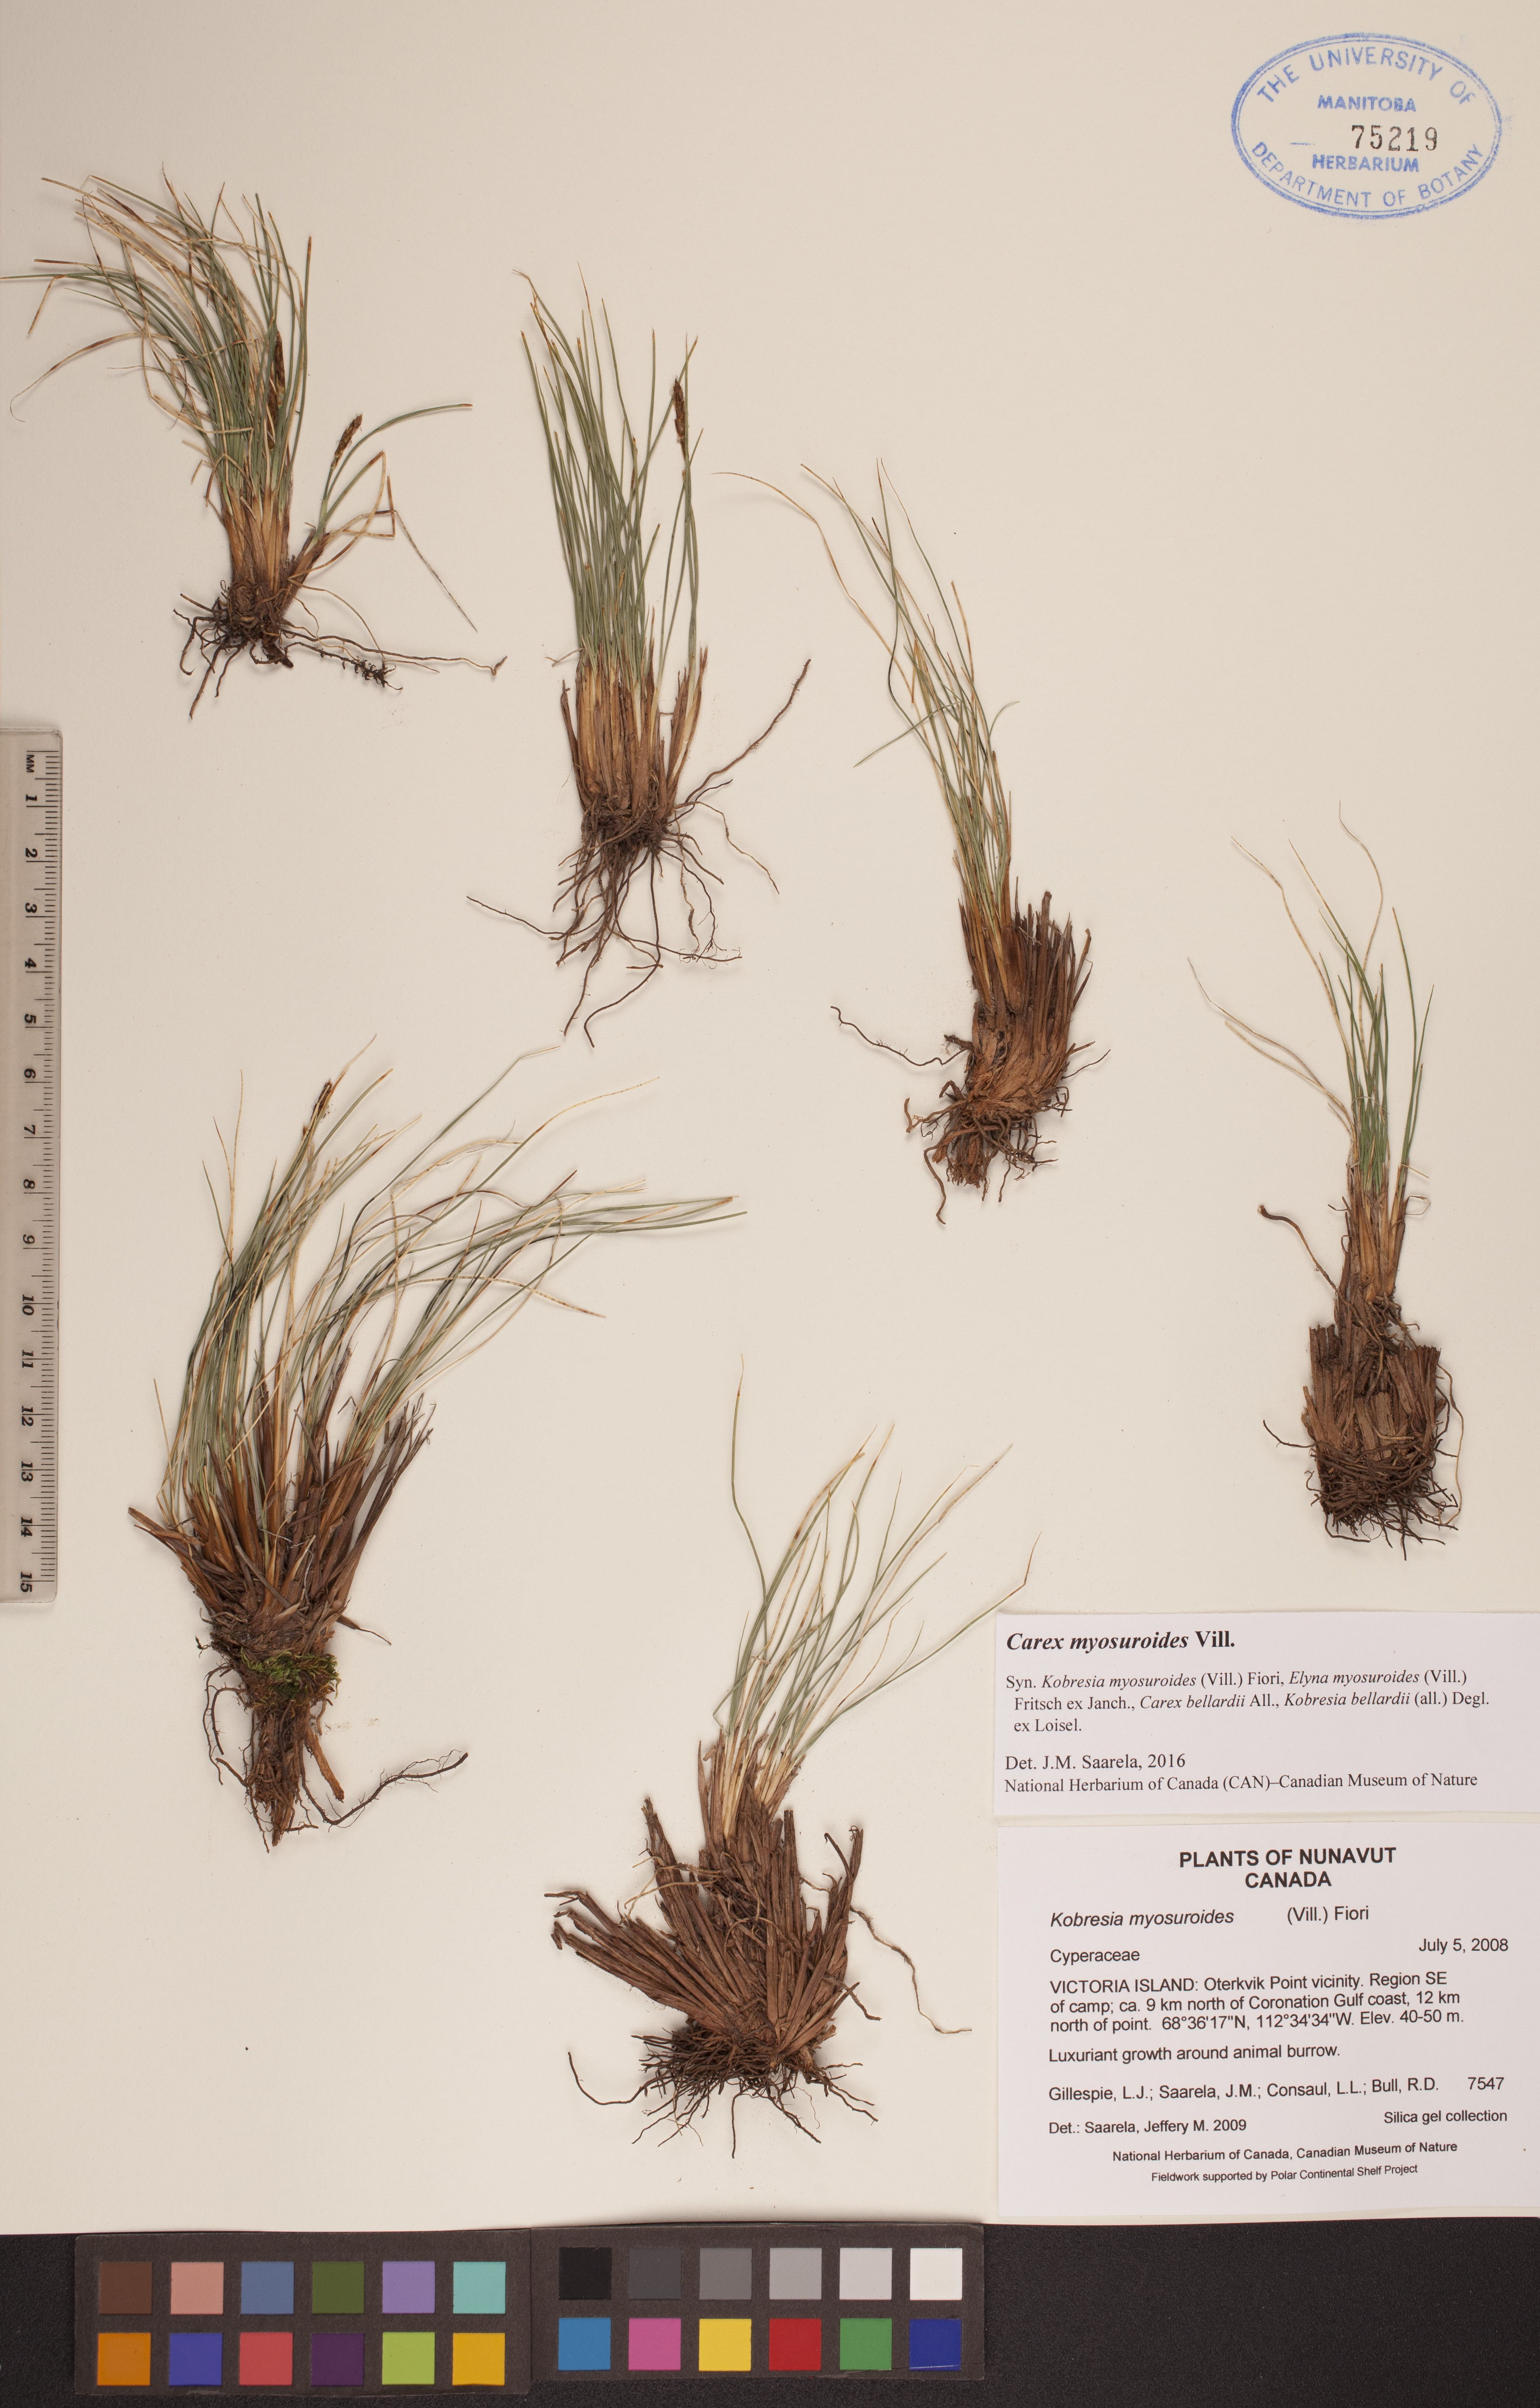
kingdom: Plantae
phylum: Tracheophyta
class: Liliopsida
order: Poales
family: Cyperaceae
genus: Carex
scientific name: Carex myosuroides
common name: Bellard's bog sedge
